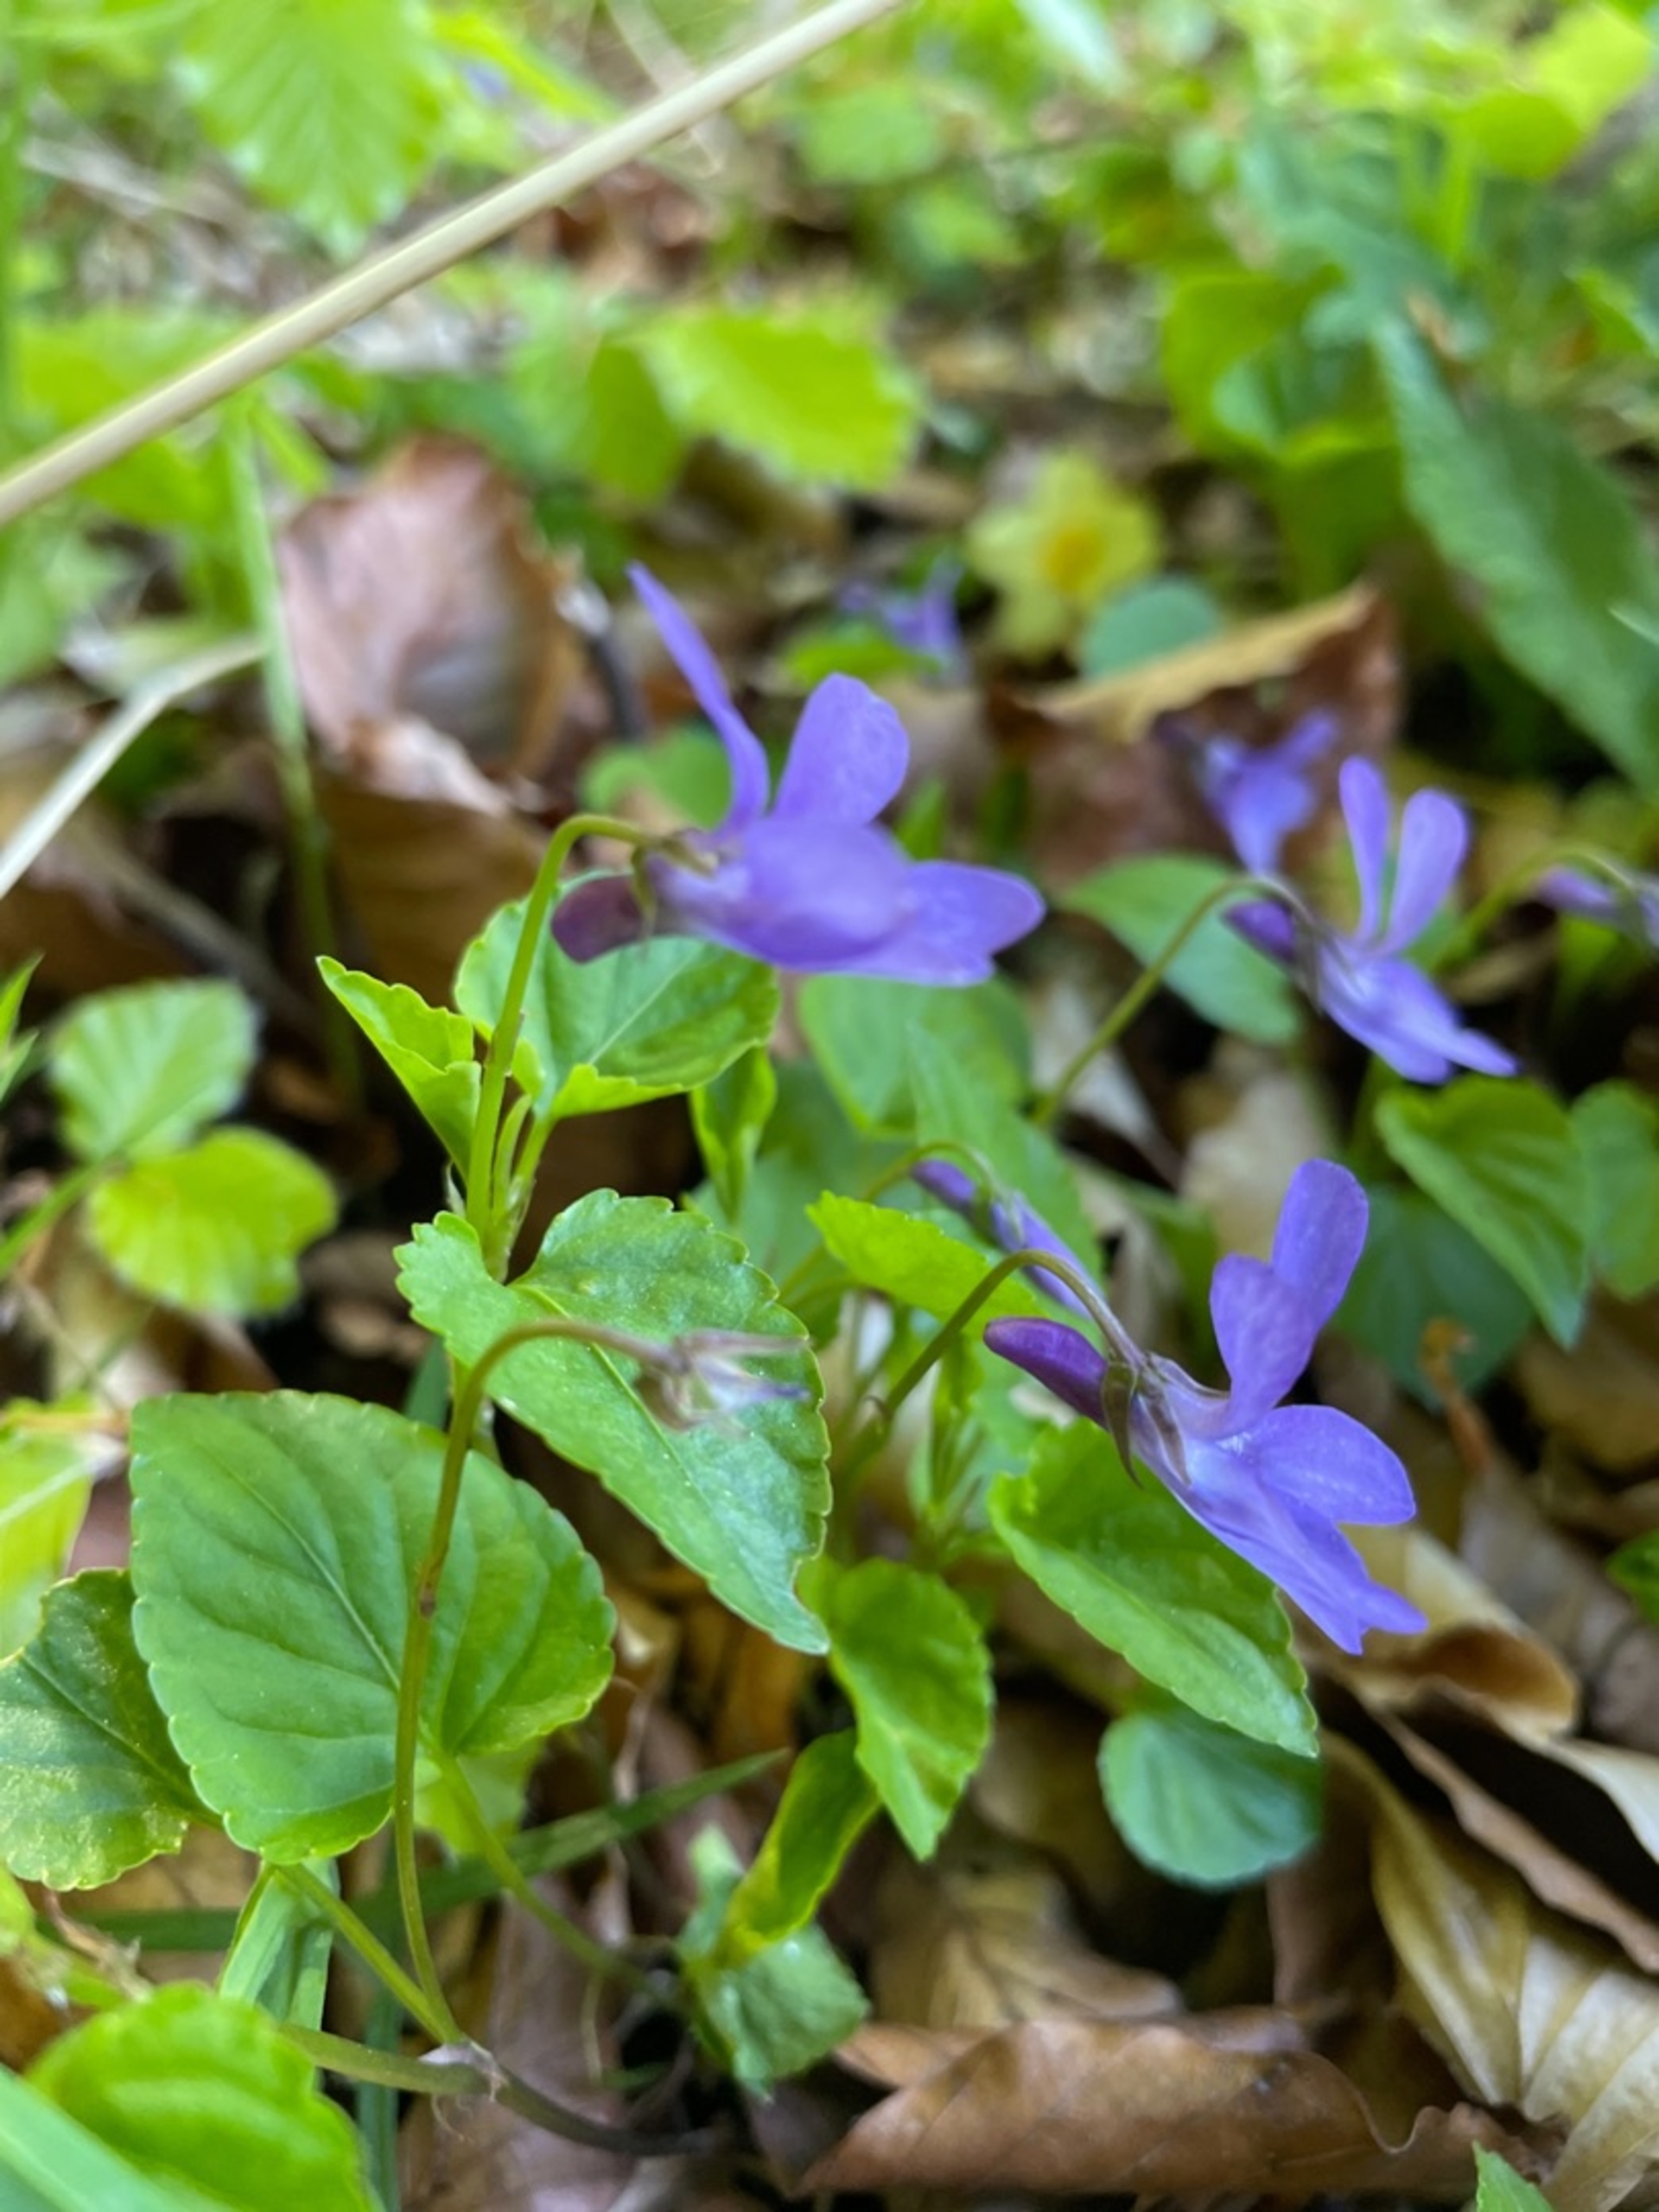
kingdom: Plantae
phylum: Tracheophyta
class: Magnoliopsida
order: Malpighiales
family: Violaceae
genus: Viola
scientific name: Viola reichenbachiana
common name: Skov-viol
